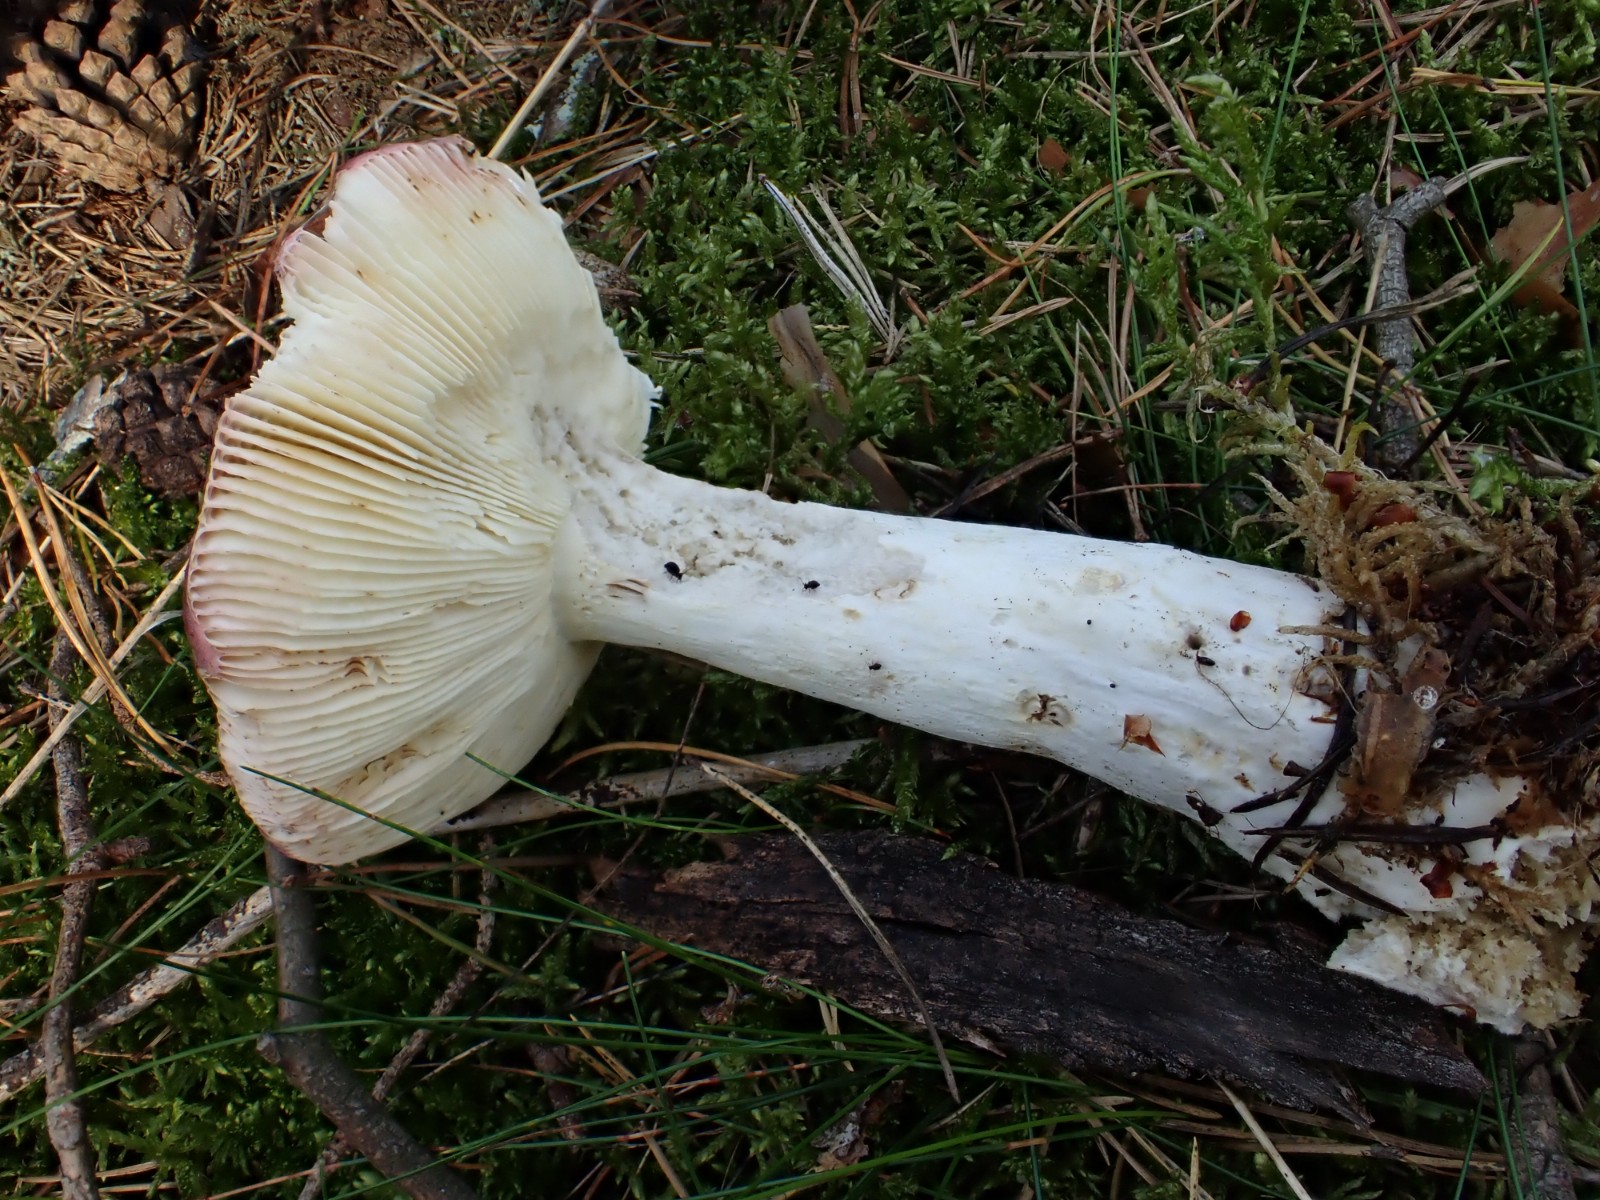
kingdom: Fungi
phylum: Basidiomycota
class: Agaricomycetes
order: Russulales
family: Russulaceae
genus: Russula
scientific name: Russula vinosa
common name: vinrød skørhat
